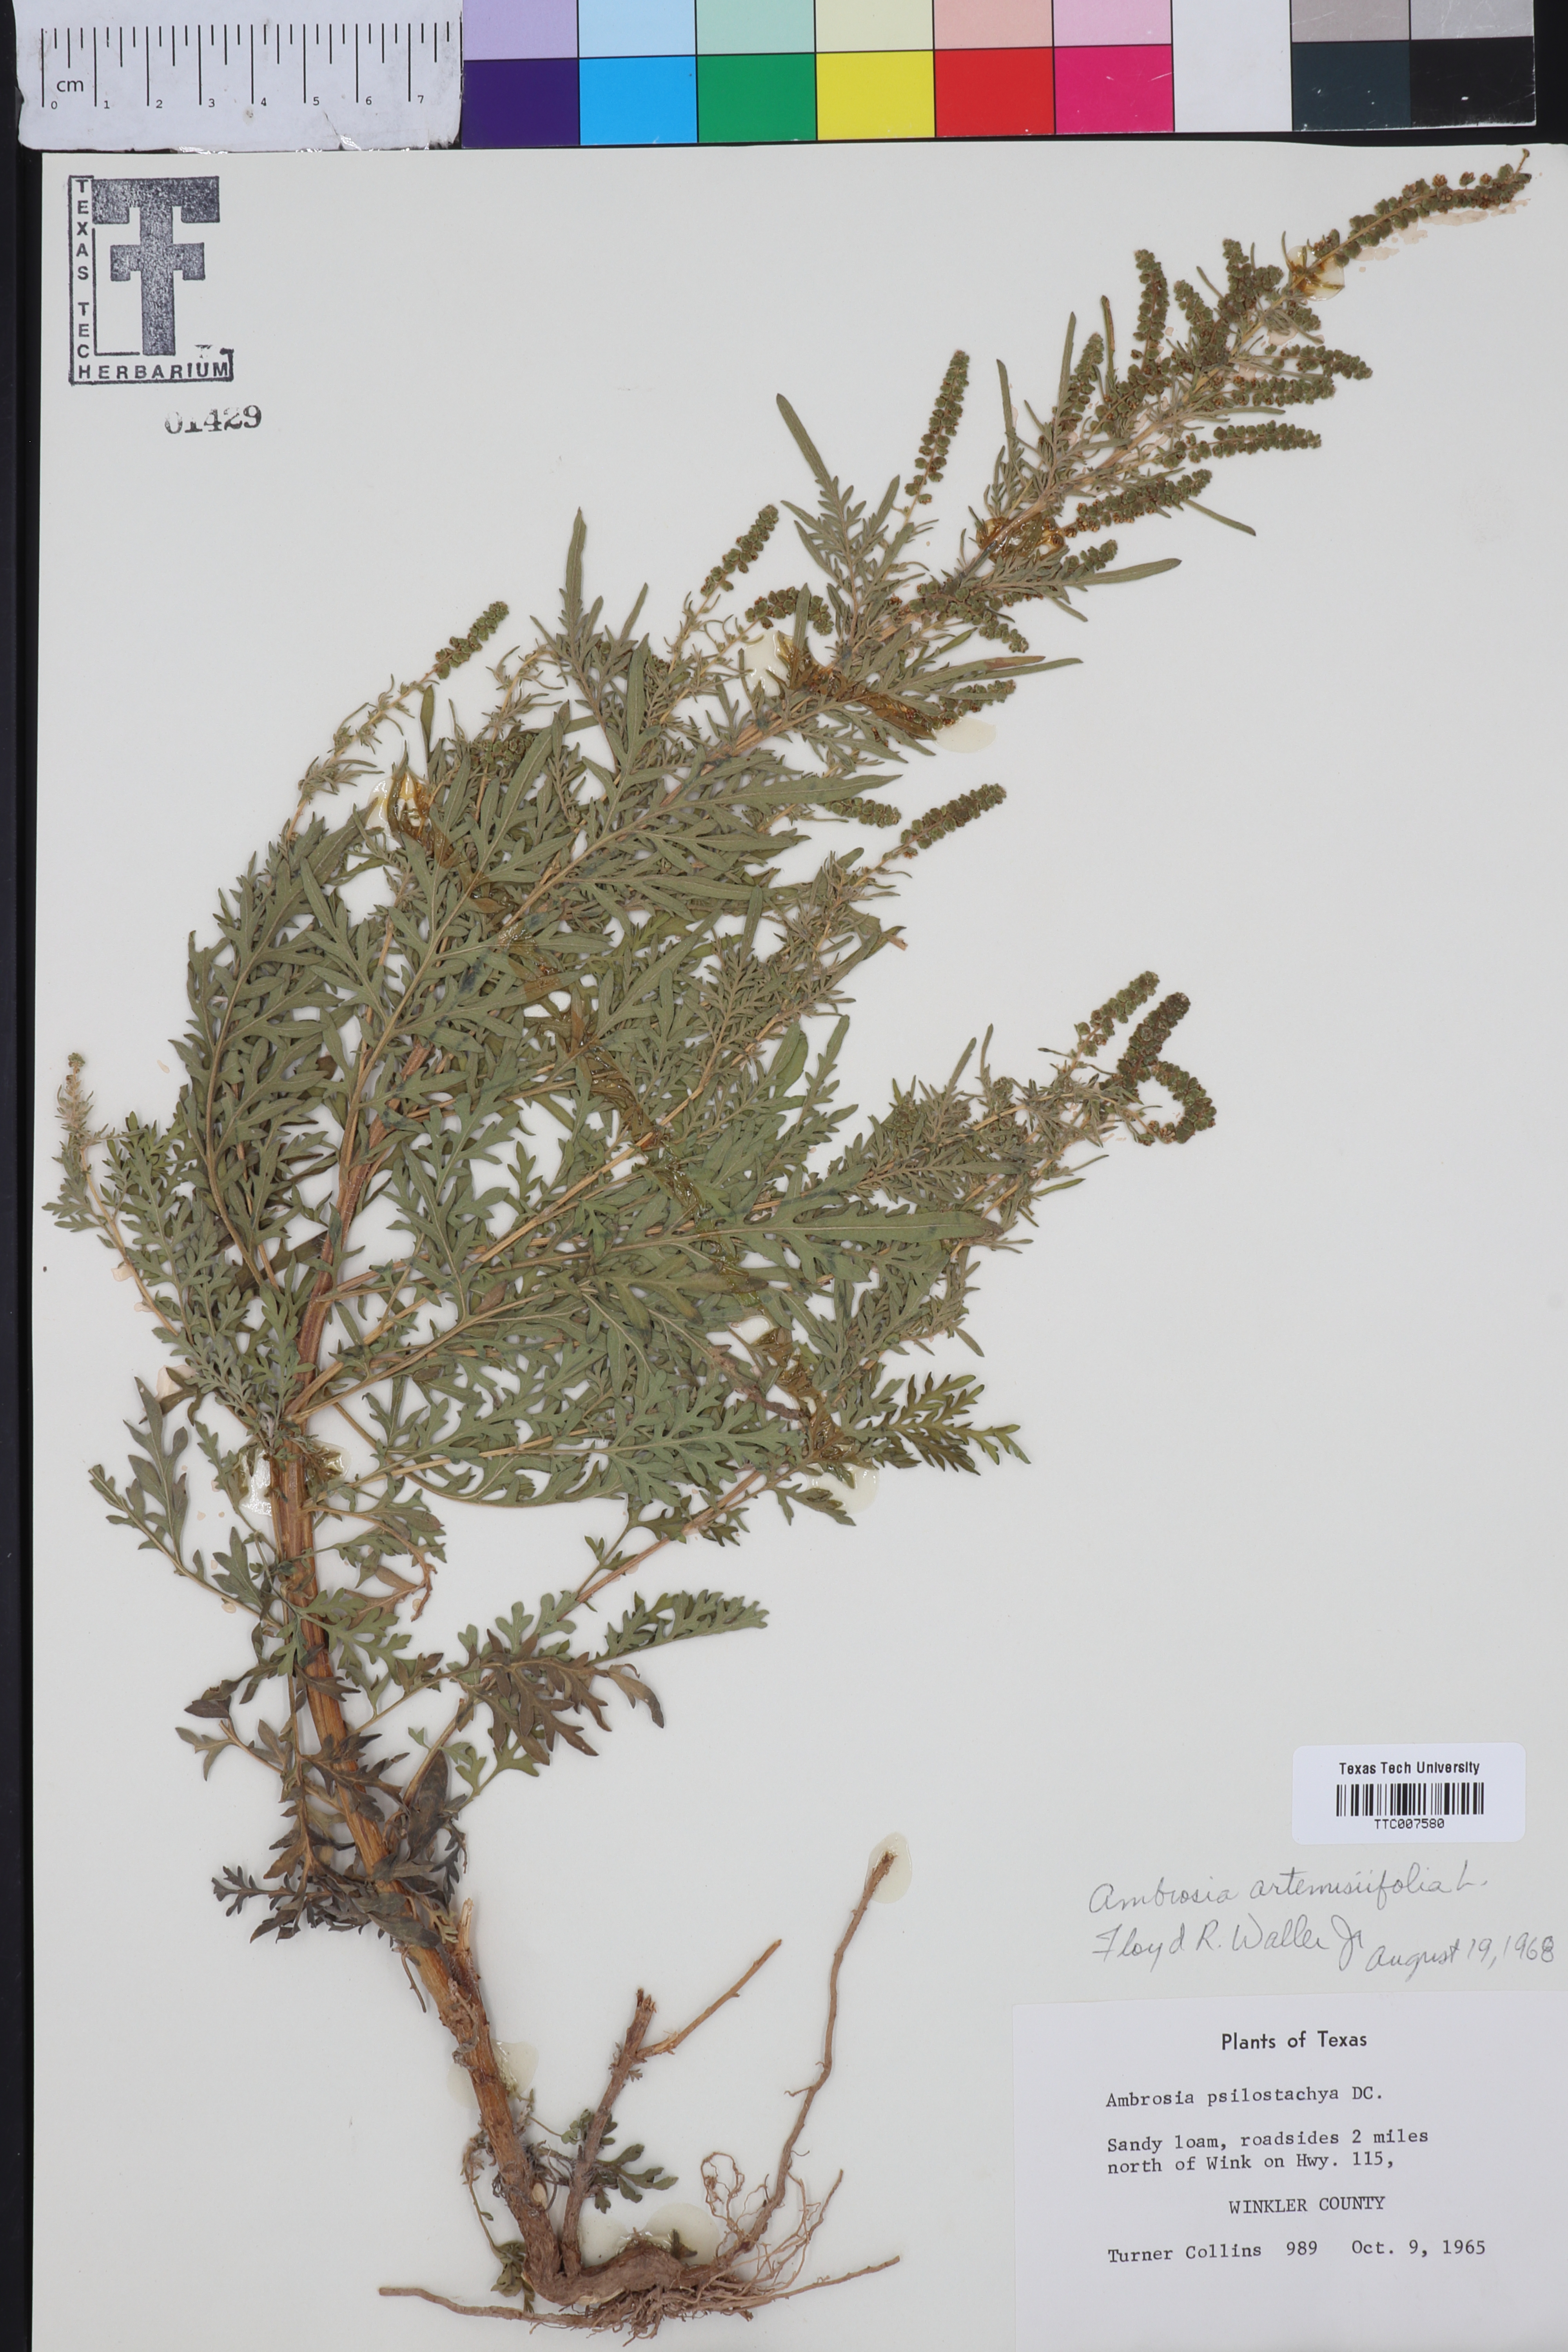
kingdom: Plantae
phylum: Tracheophyta
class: Magnoliopsida
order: Asterales
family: Asteraceae
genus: Ambrosia
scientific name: Ambrosia artemisiifolia
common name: Annual ragweed
